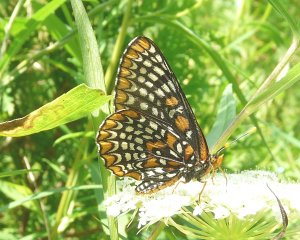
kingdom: Animalia
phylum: Arthropoda
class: Insecta
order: Lepidoptera
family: Nymphalidae
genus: Euphydryas
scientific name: Euphydryas phaeton
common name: Baltimore Checkerspot
